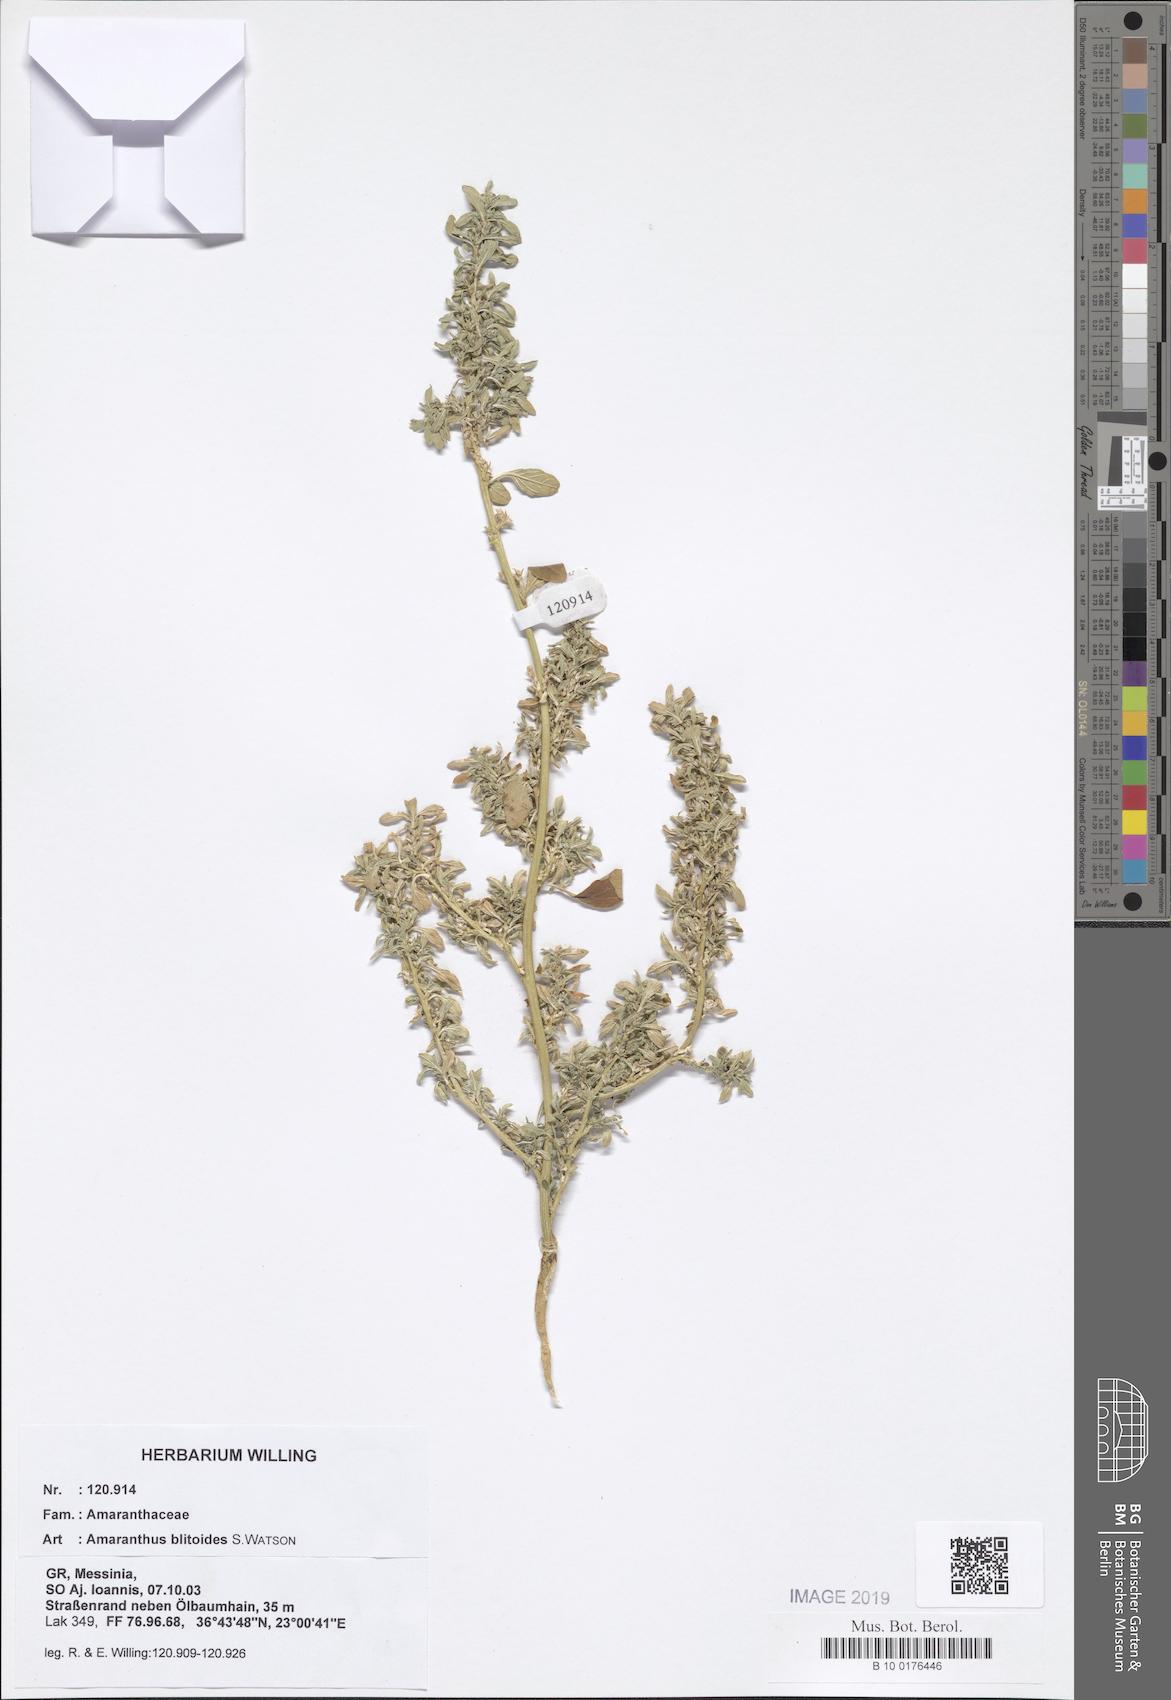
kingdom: Plantae
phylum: Tracheophyta
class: Magnoliopsida
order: Caryophyllales
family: Amaranthaceae
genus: Amaranthus
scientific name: Amaranthus blitoides
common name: Prostrate pigweed
